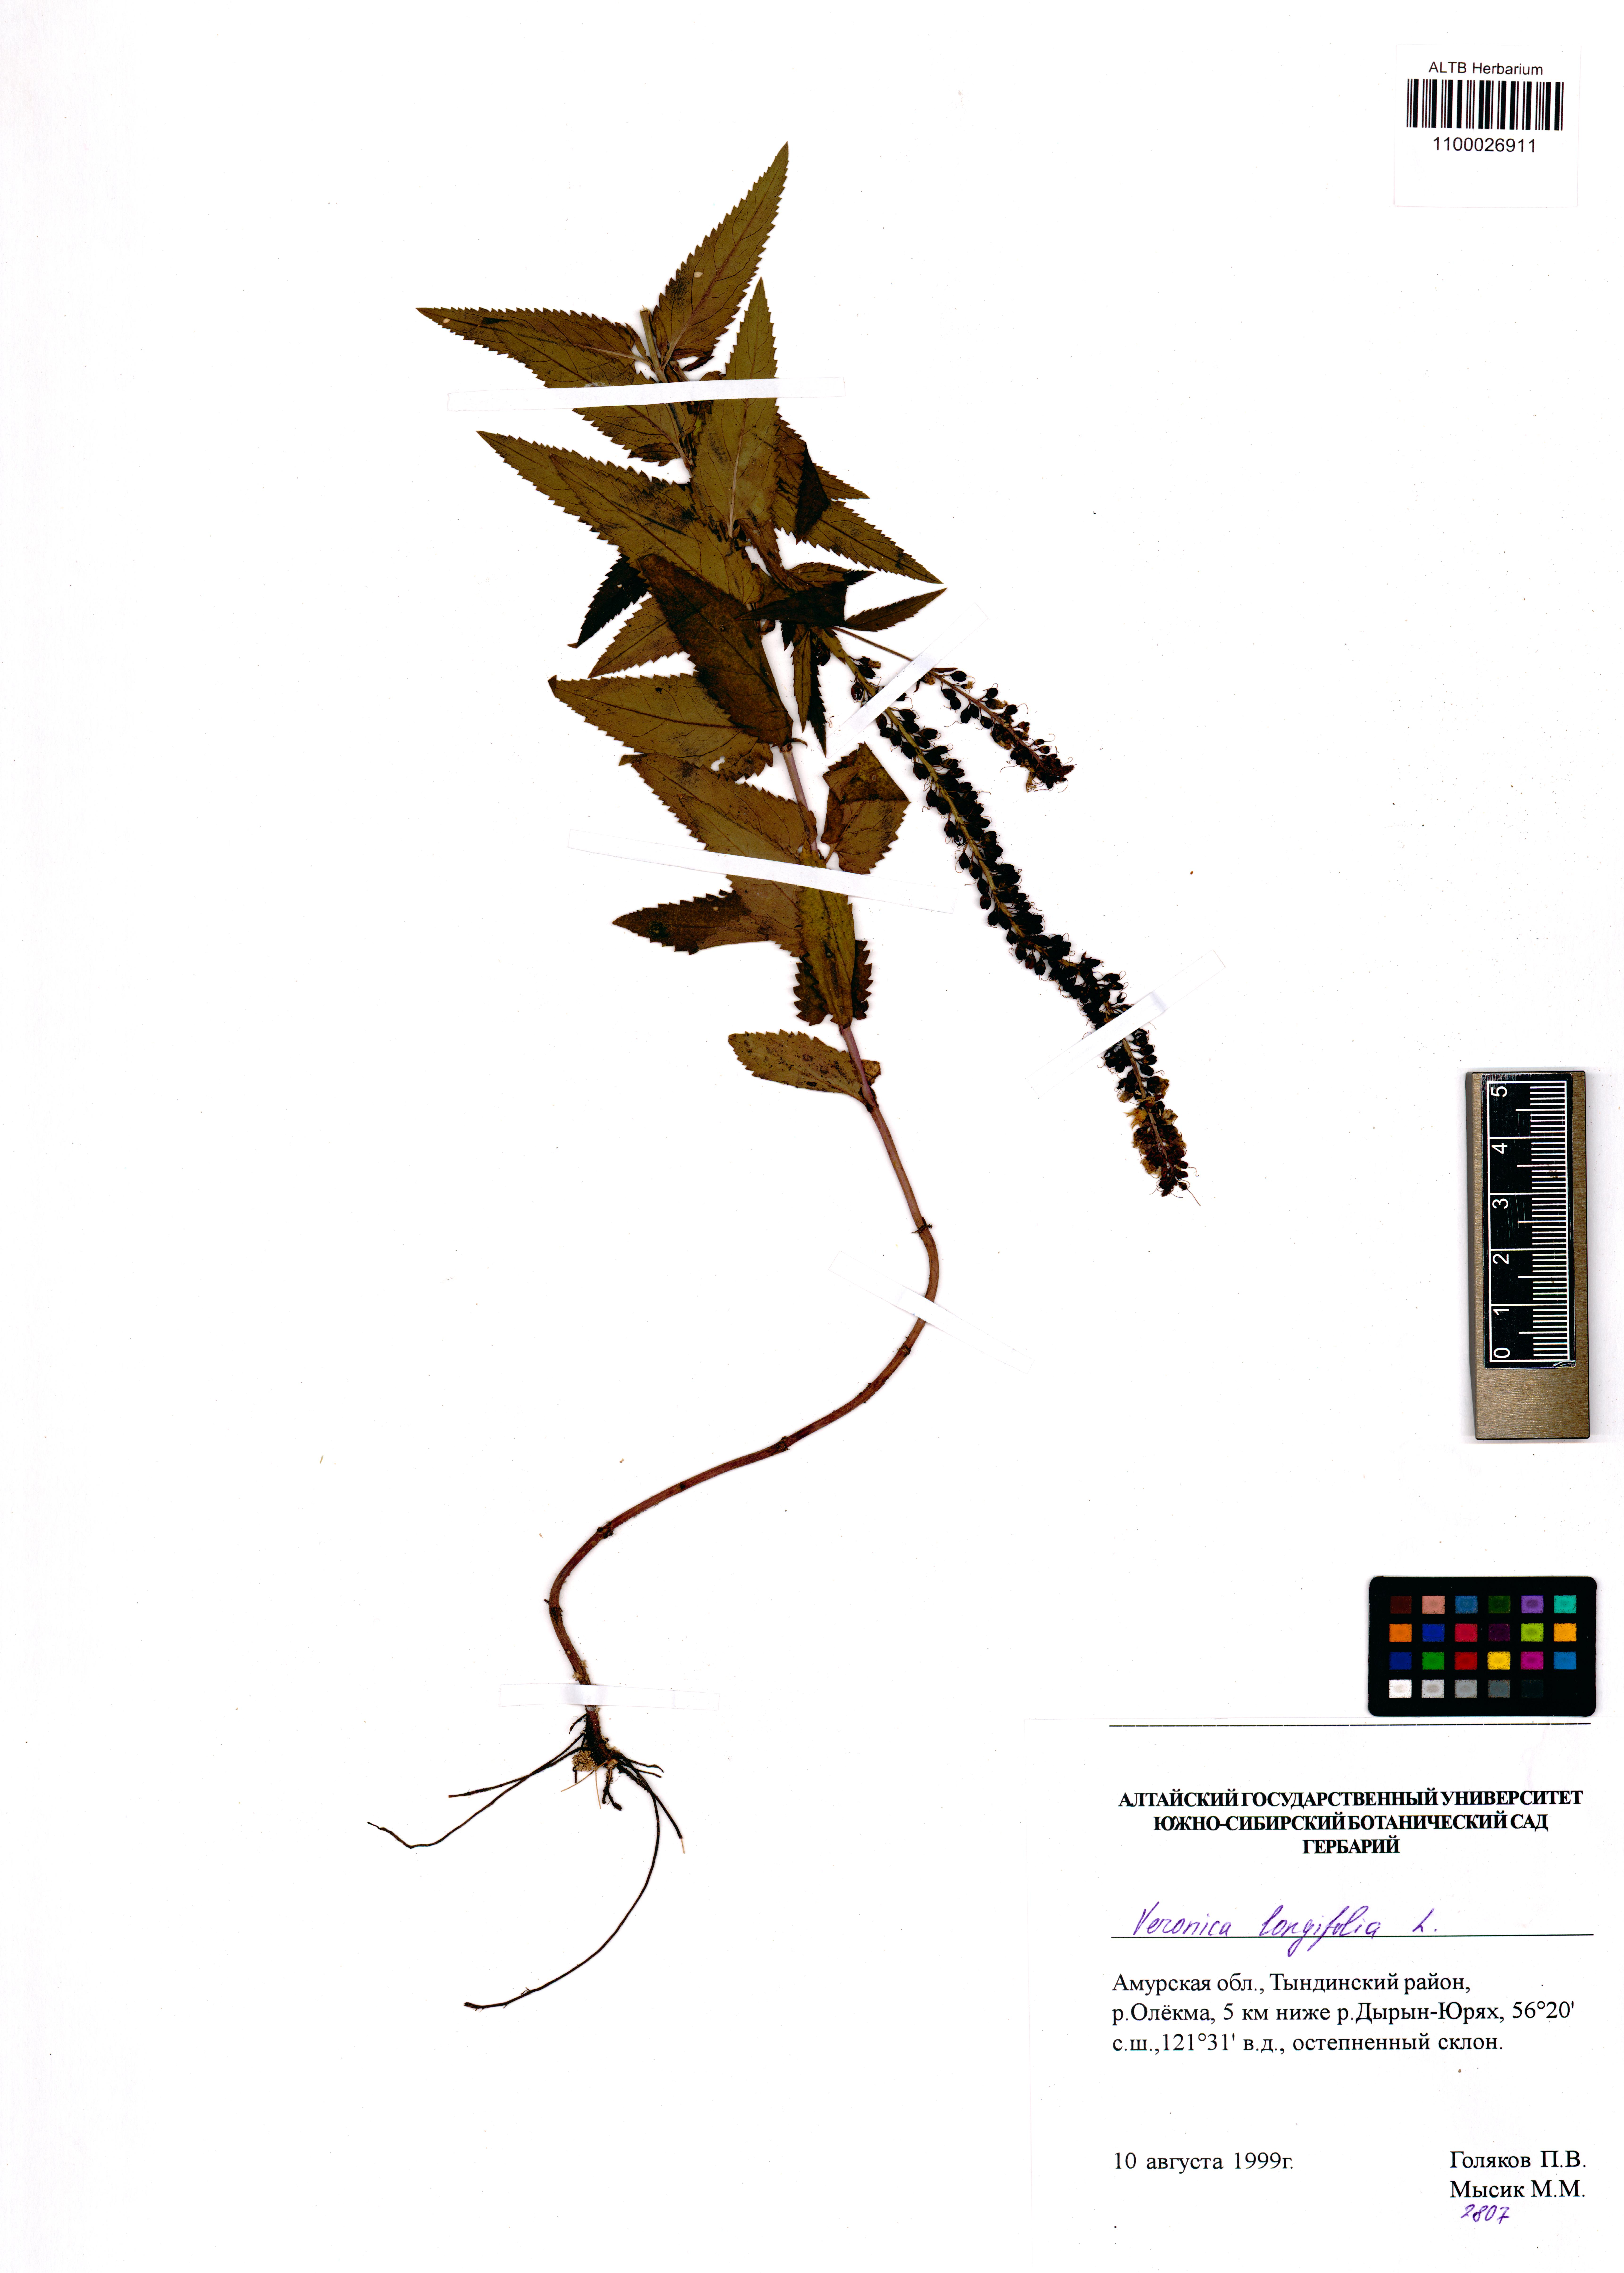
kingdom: Plantae
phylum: Tracheophyta
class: Magnoliopsida
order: Lamiales
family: Plantaginaceae
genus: Veronica
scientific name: Veronica longifolia
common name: Garden speedwell
